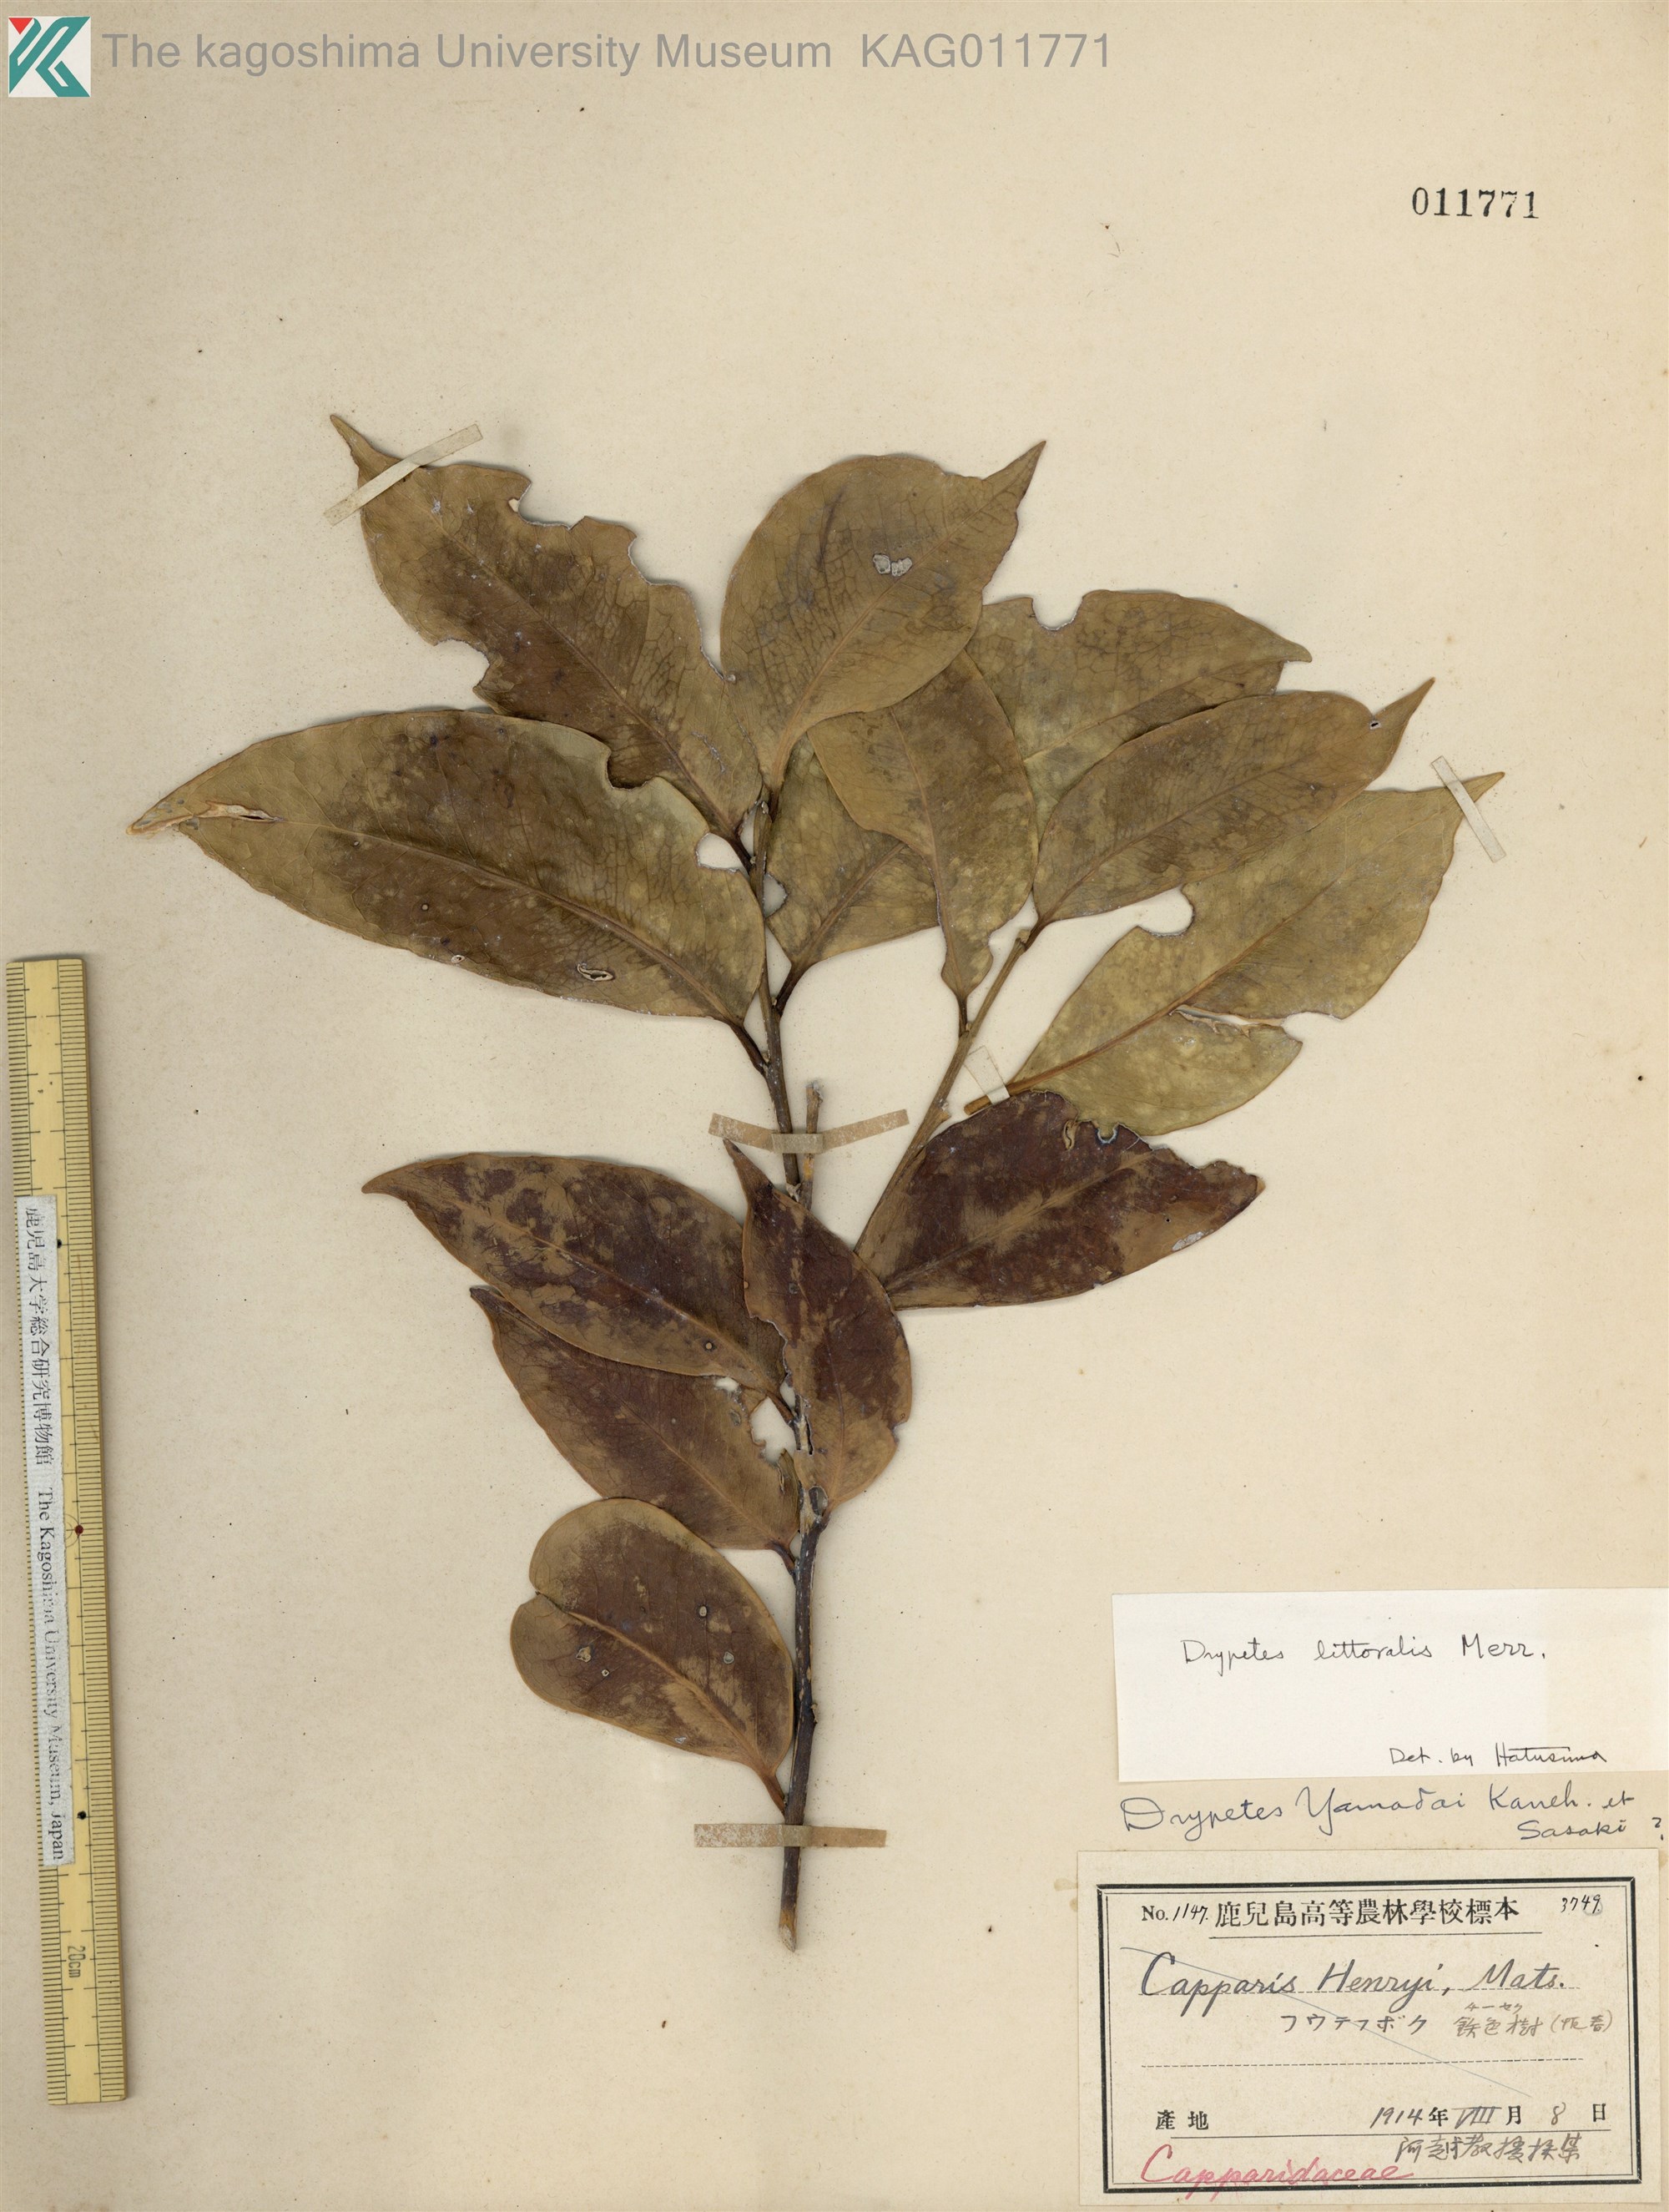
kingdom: Plantae
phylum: Tracheophyta
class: Magnoliopsida
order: Malpighiales
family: Putranjivaceae
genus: Drypetes
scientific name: Drypetes littoralis
